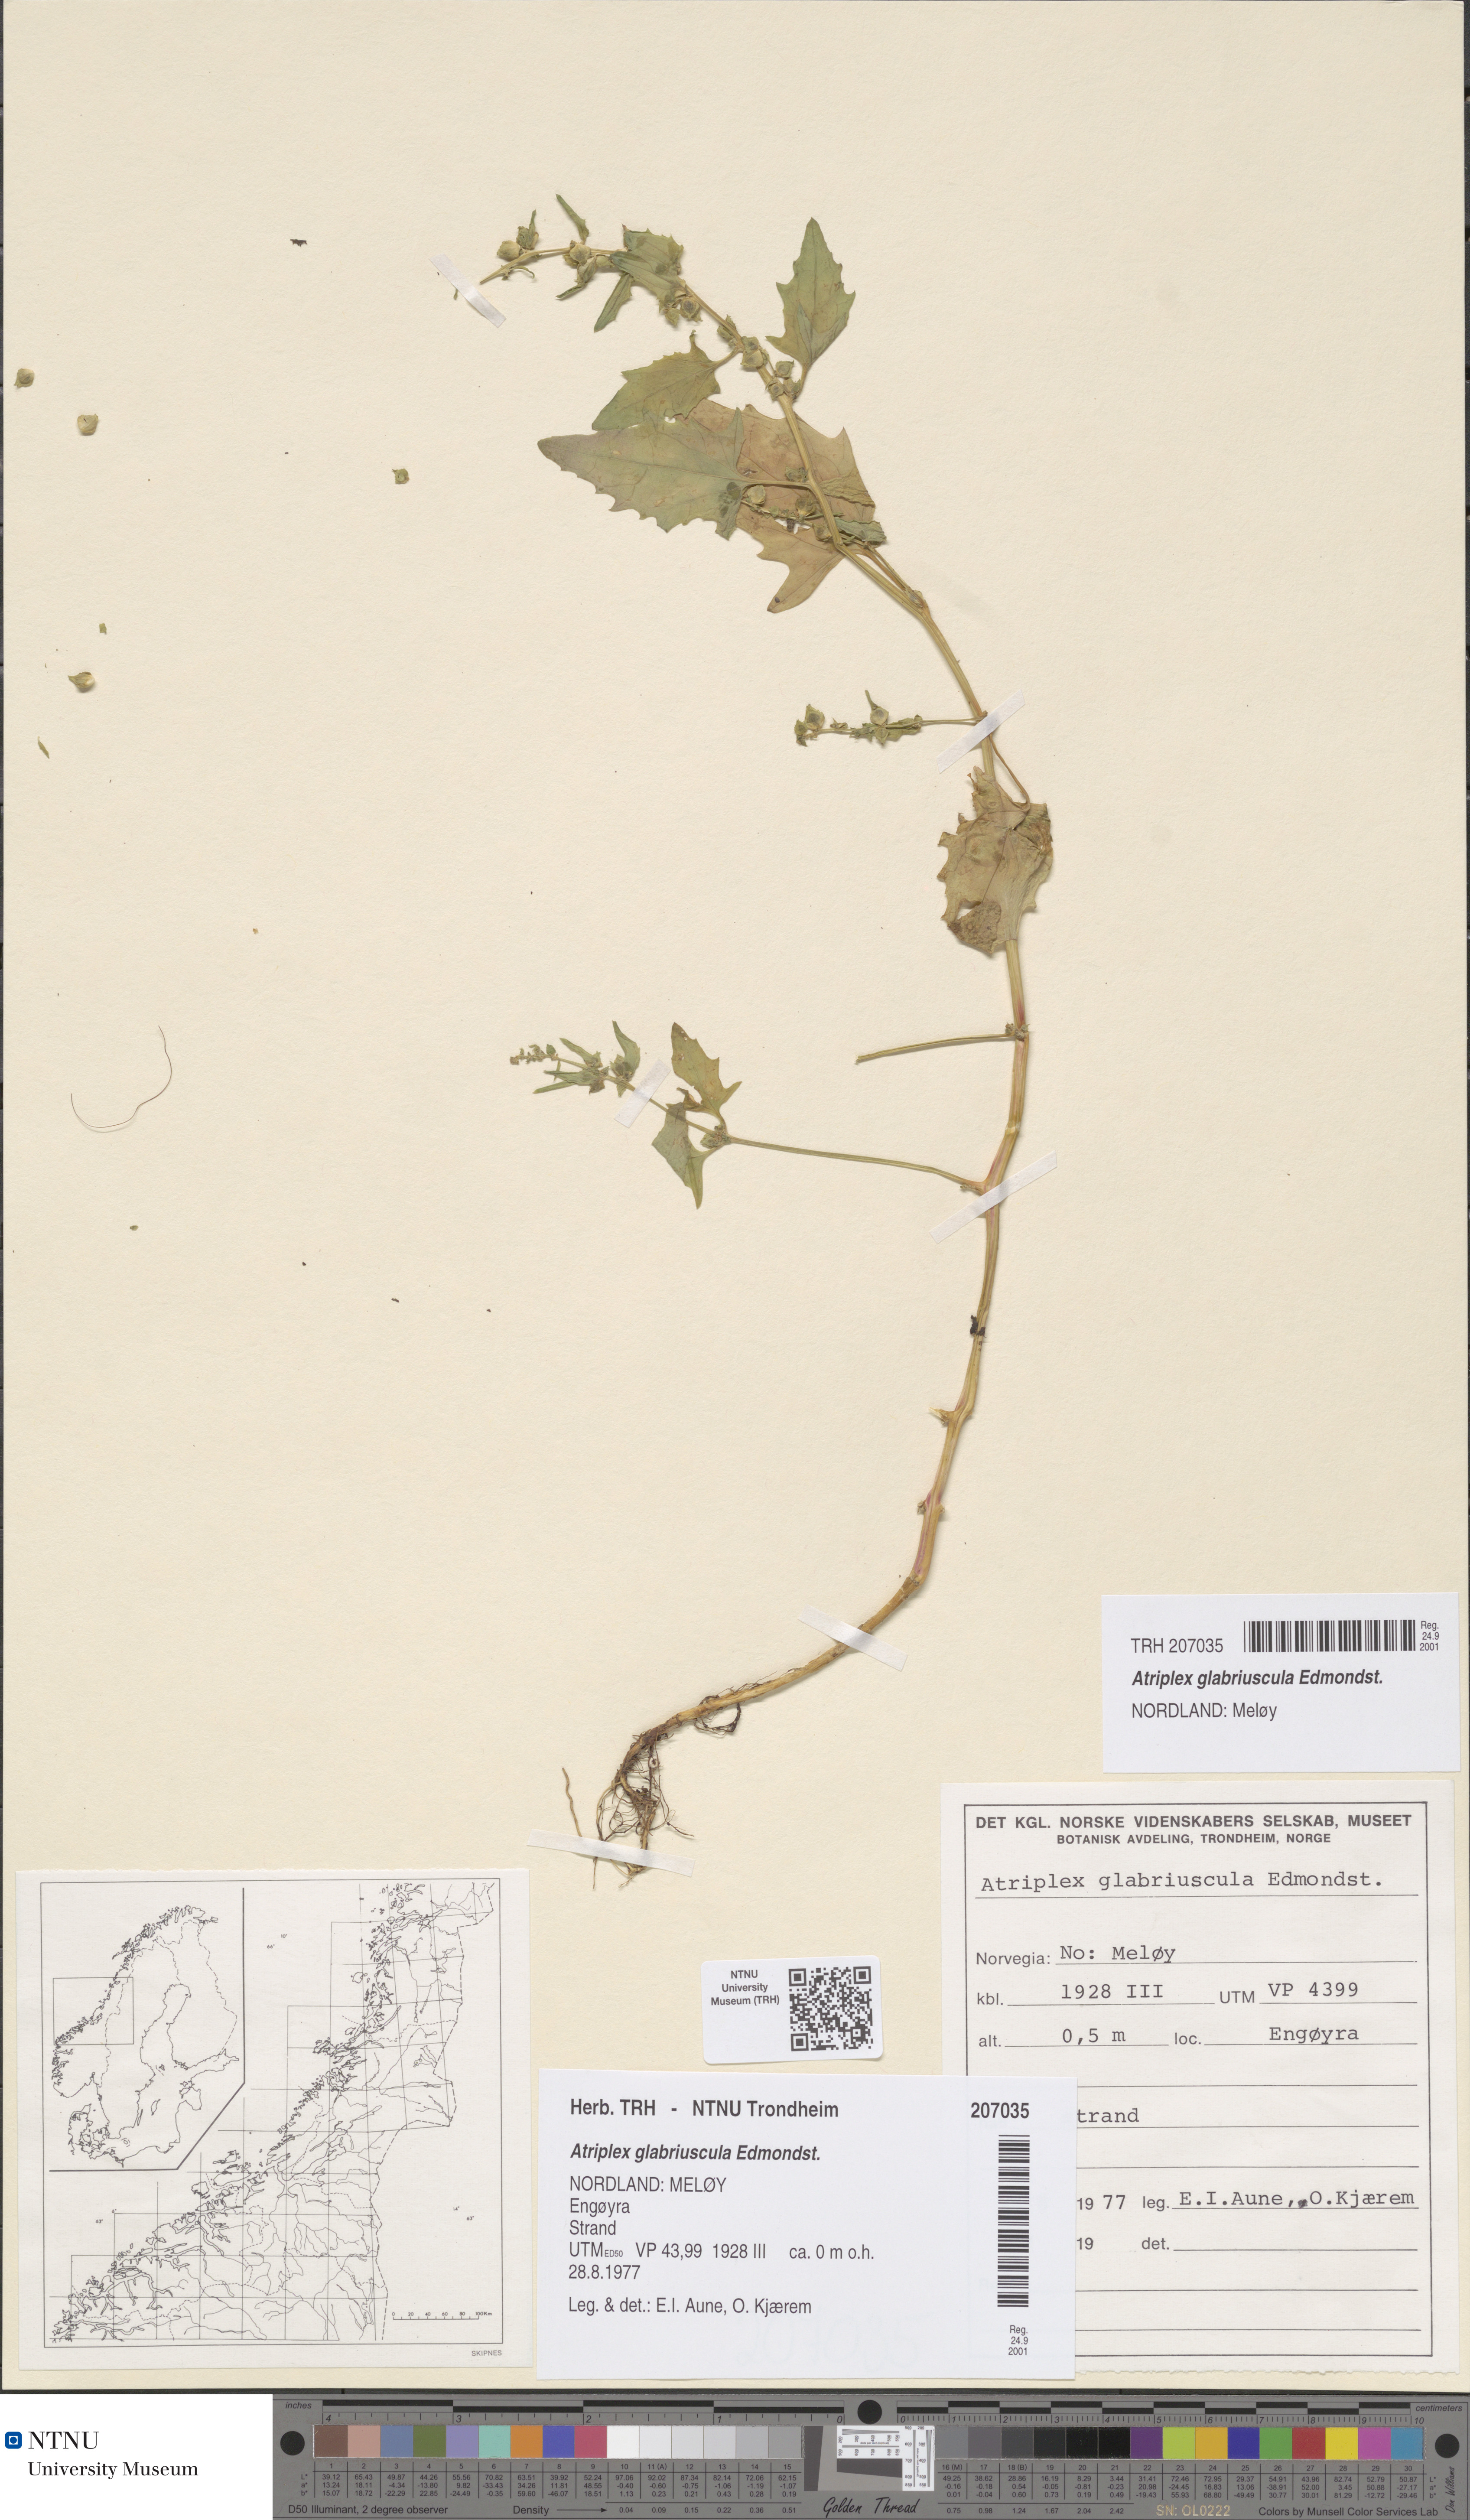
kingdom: Plantae
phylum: Tracheophyta
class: Magnoliopsida
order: Caryophyllales
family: Amaranthaceae
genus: Atriplex
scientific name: Atriplex glabriuscula
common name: Babington's orache
